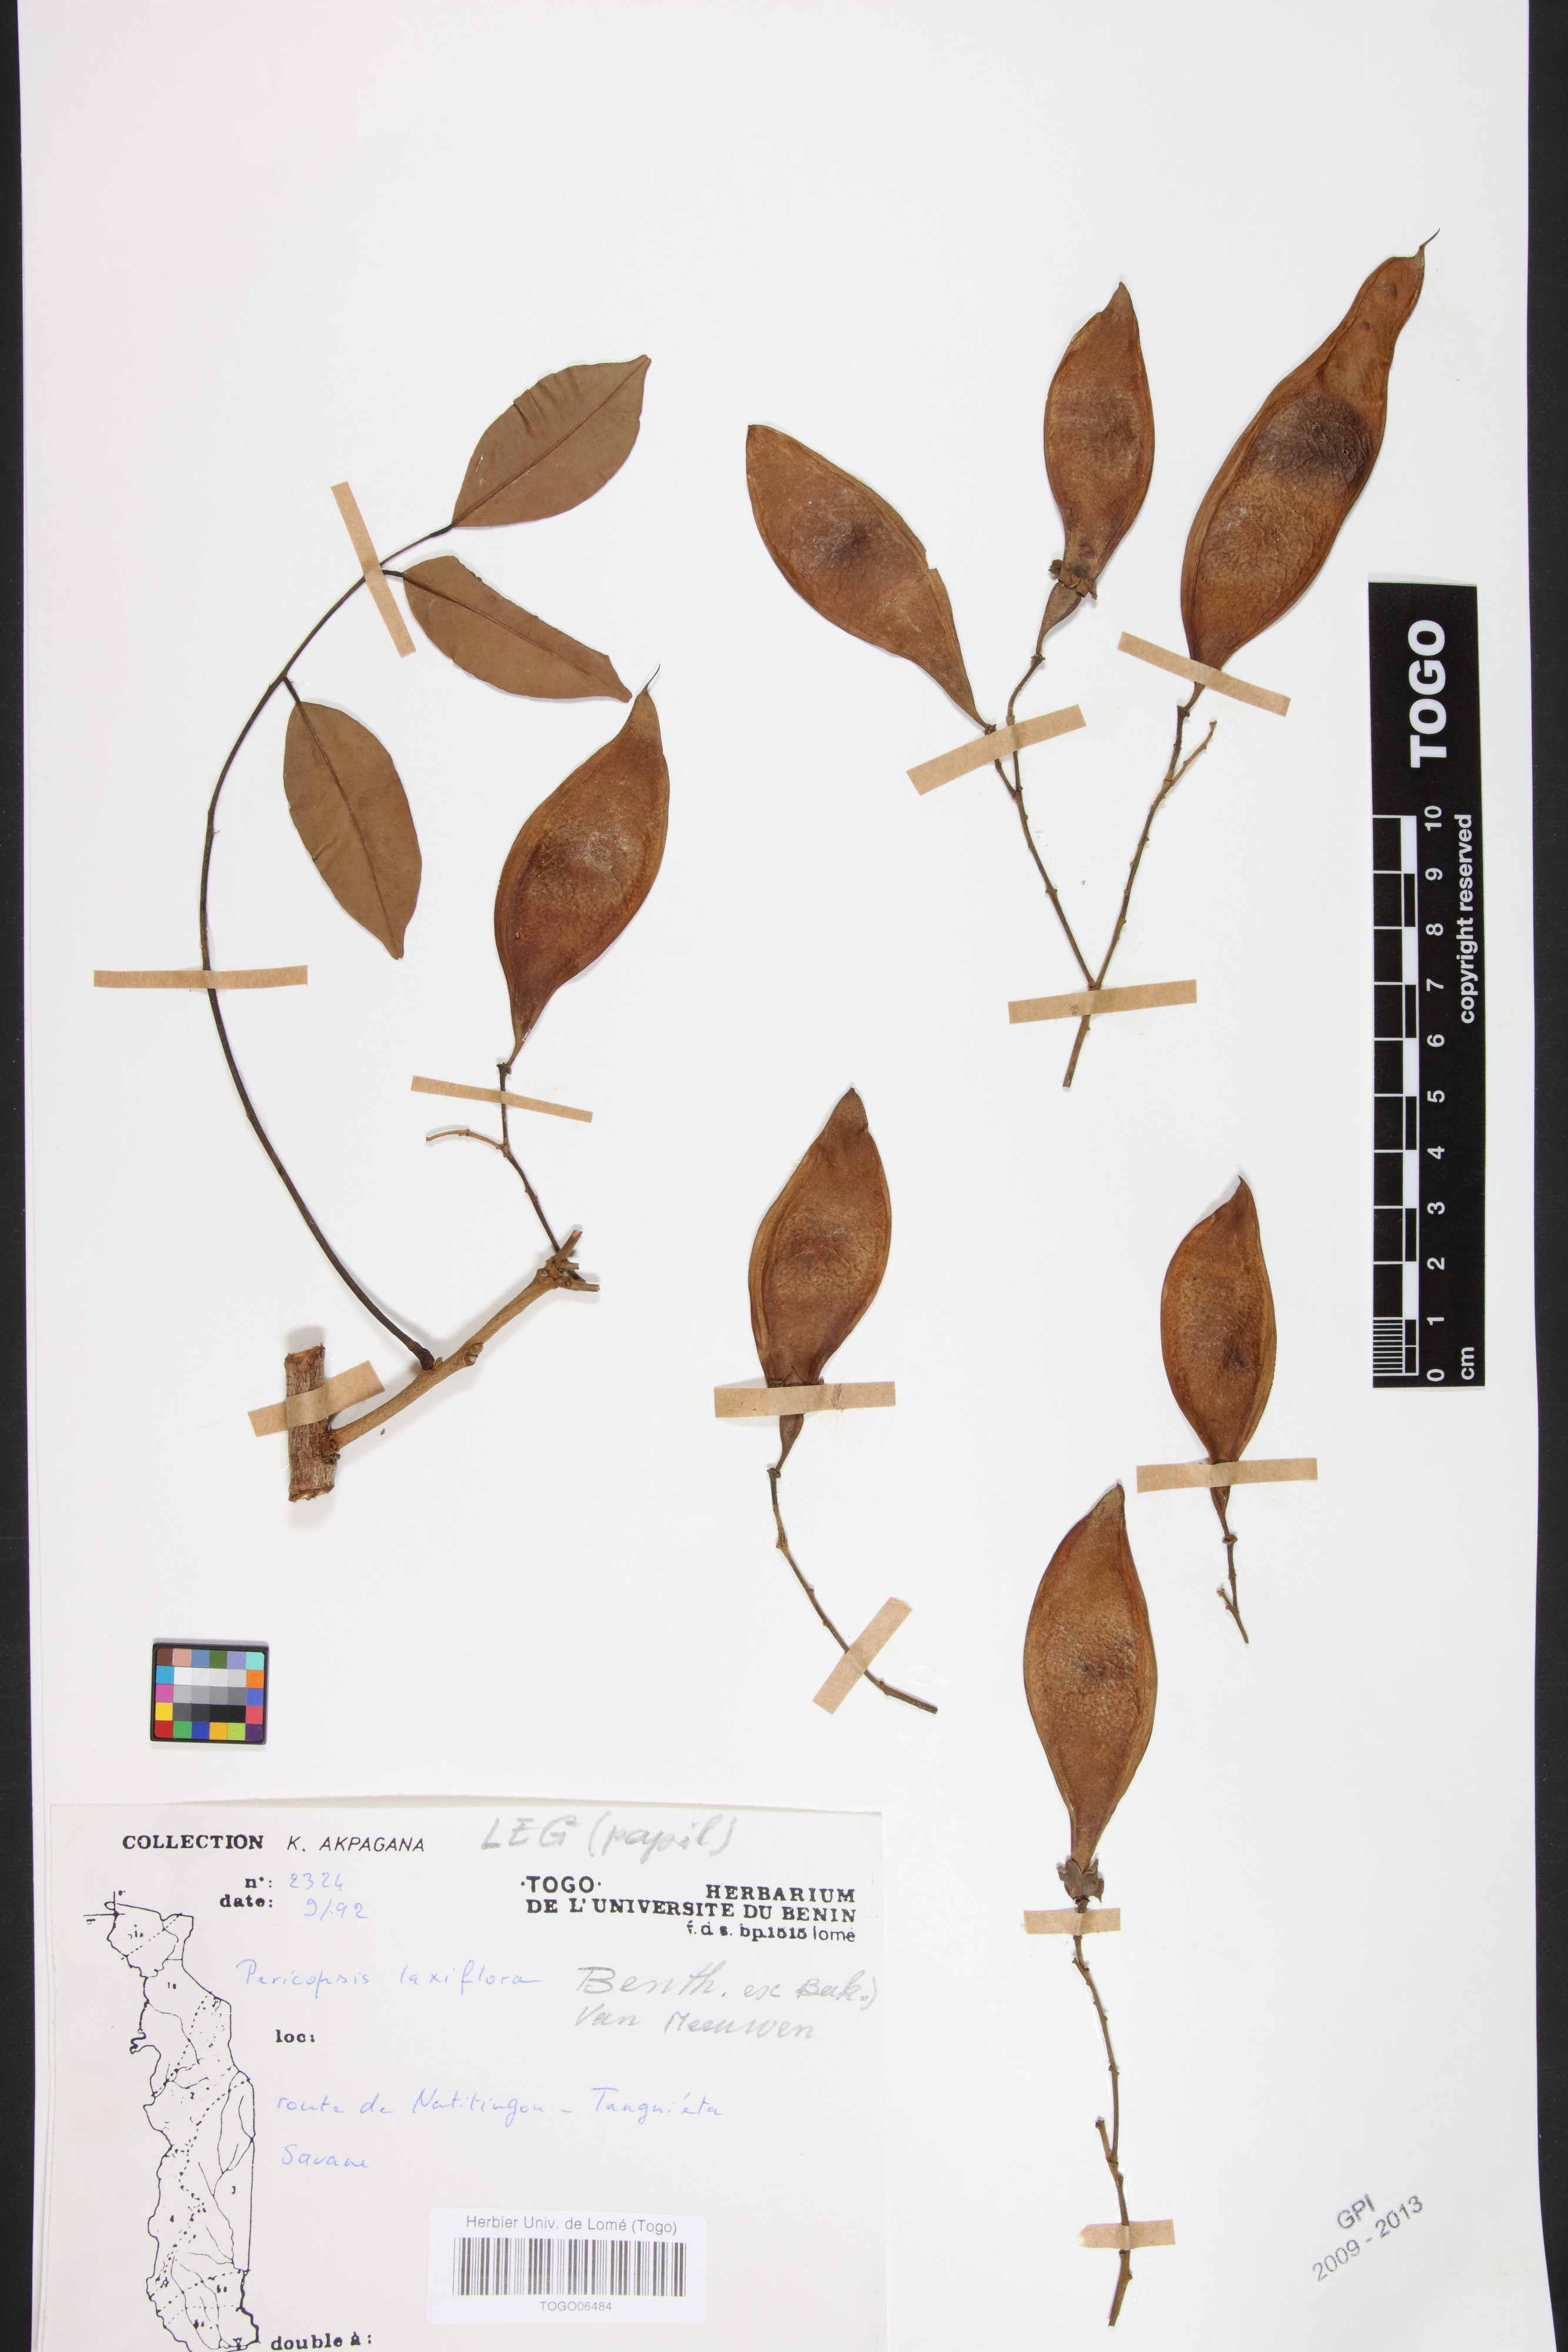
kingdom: Plantae
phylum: Tracheophyta
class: Magnoliopsida
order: Fabales
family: Fabaceae
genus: Pericopsis
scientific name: Pericopsis laxiflora
